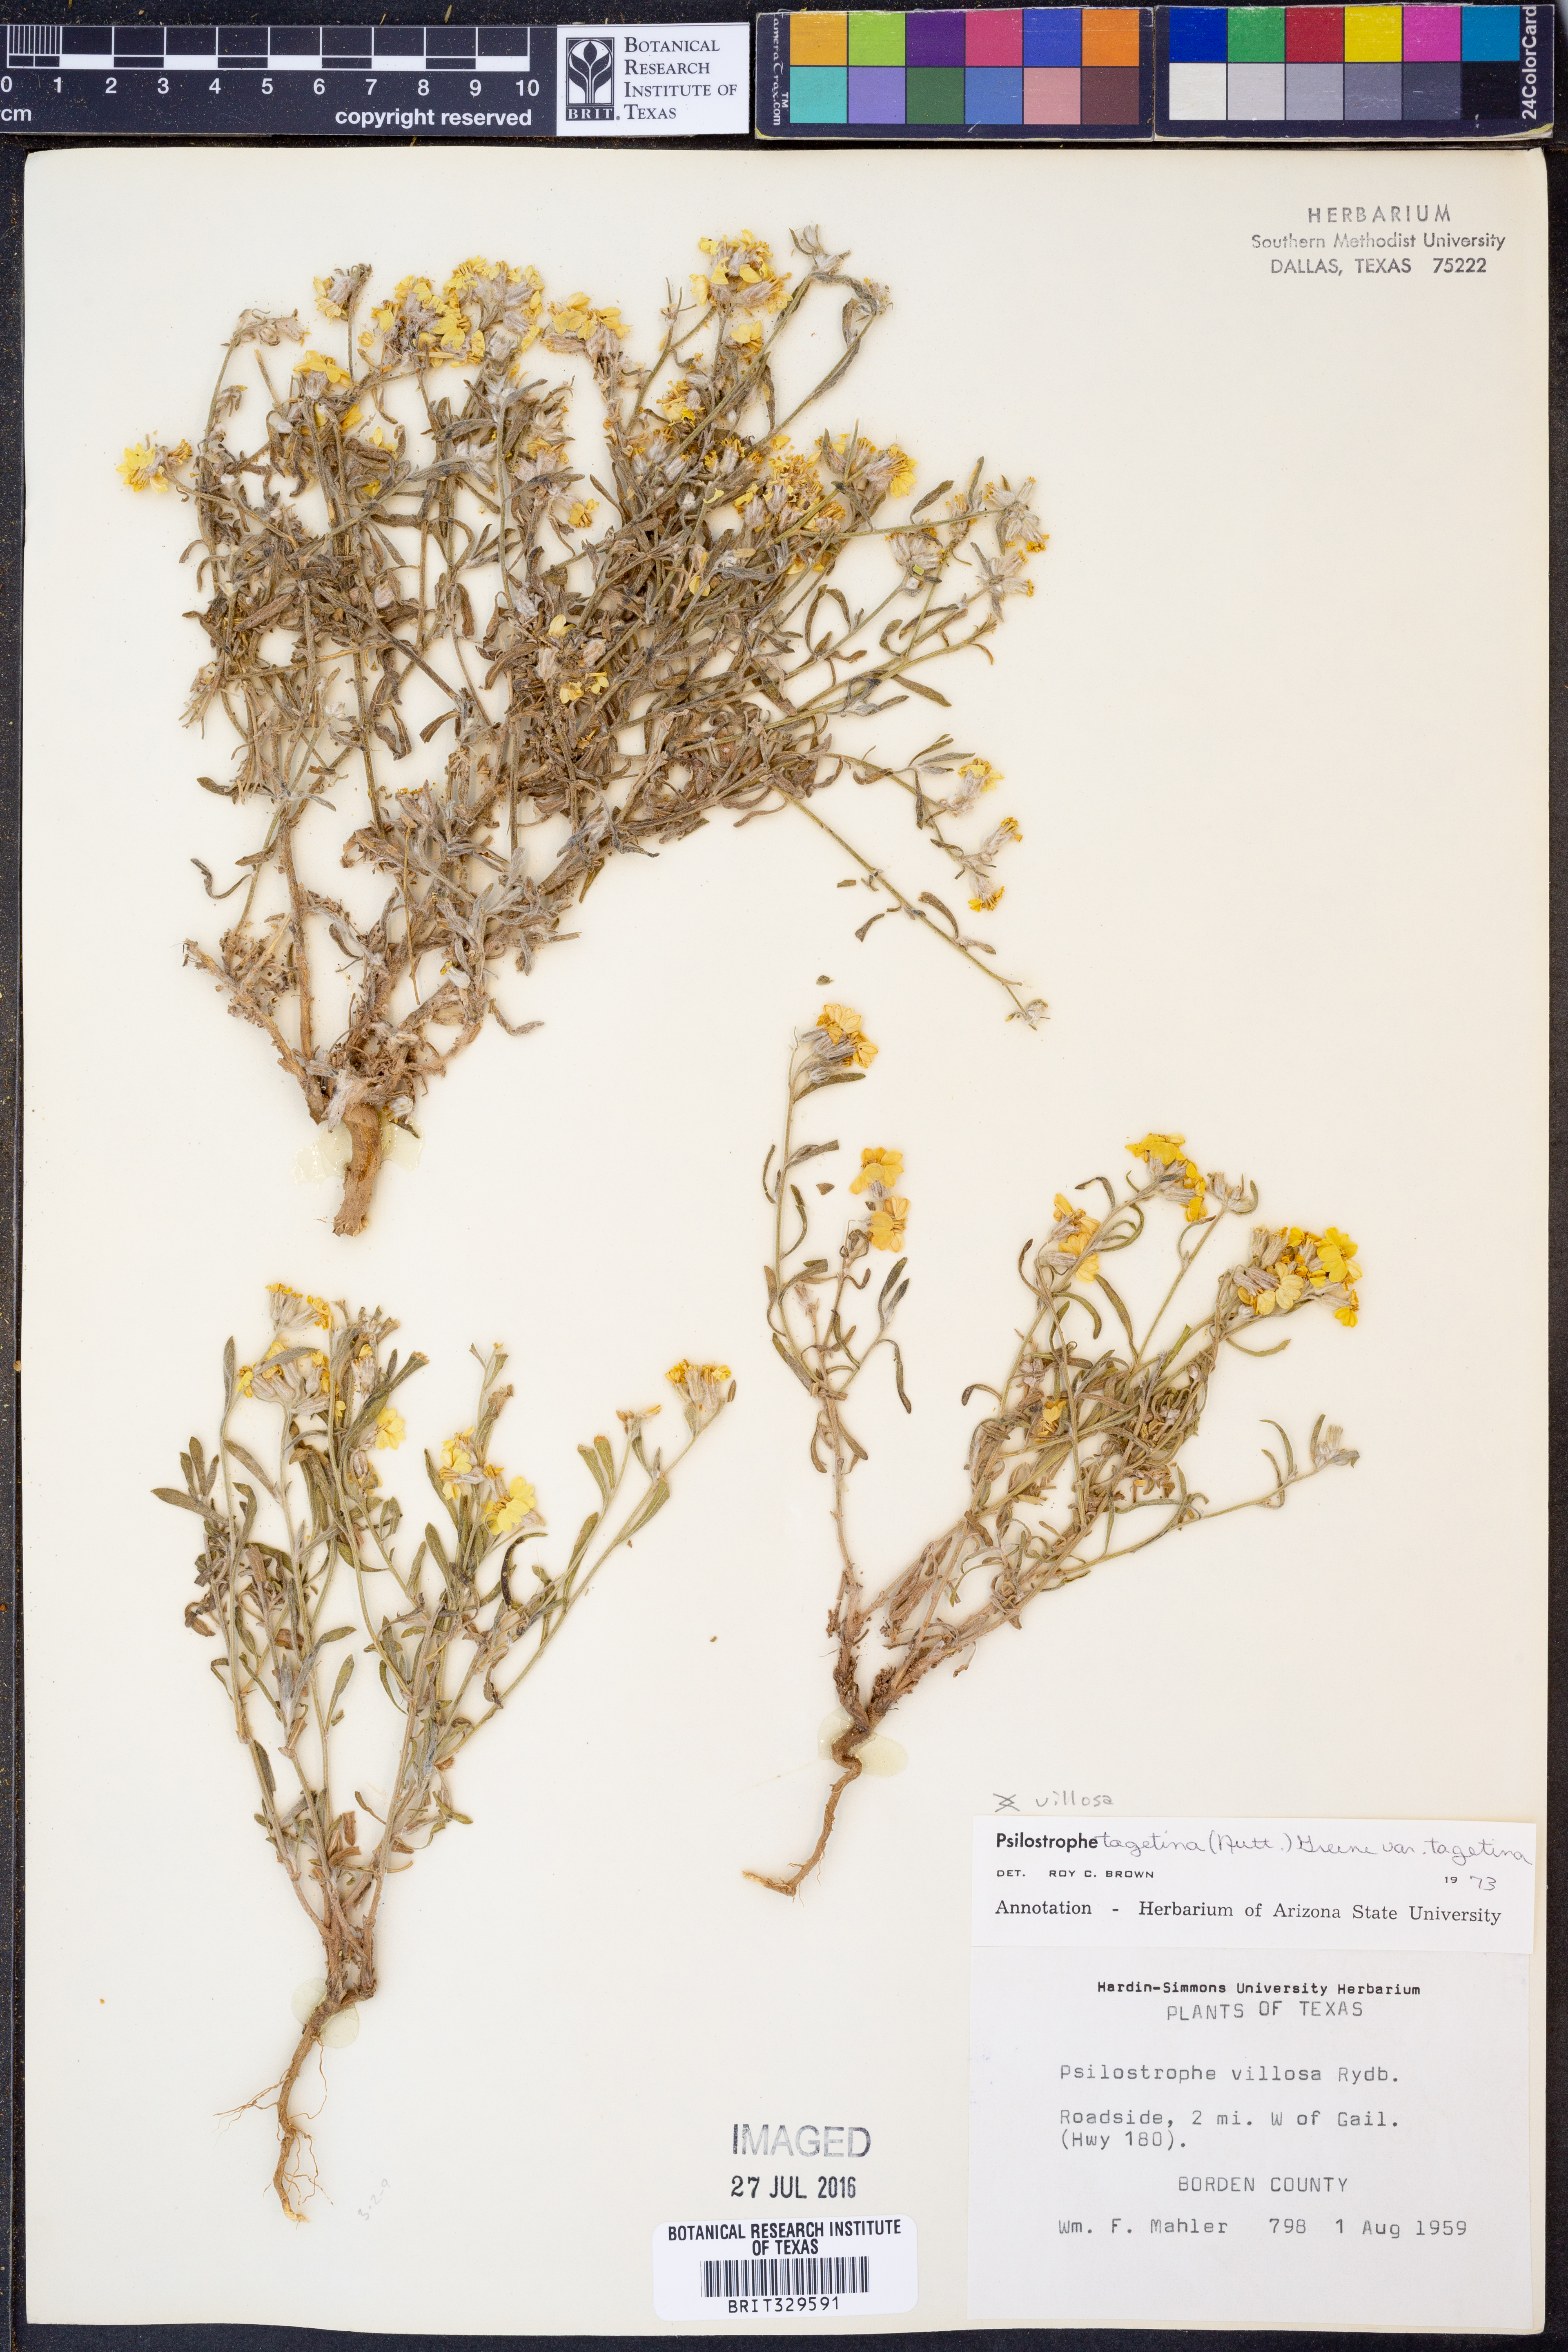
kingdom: Plantae
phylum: Tracheophyta
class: Magnoliopsida
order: Asterales
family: Asteraceae
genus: Psilostrophe
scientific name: Psilostrophe tagetina
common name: Marigold paper-flower
